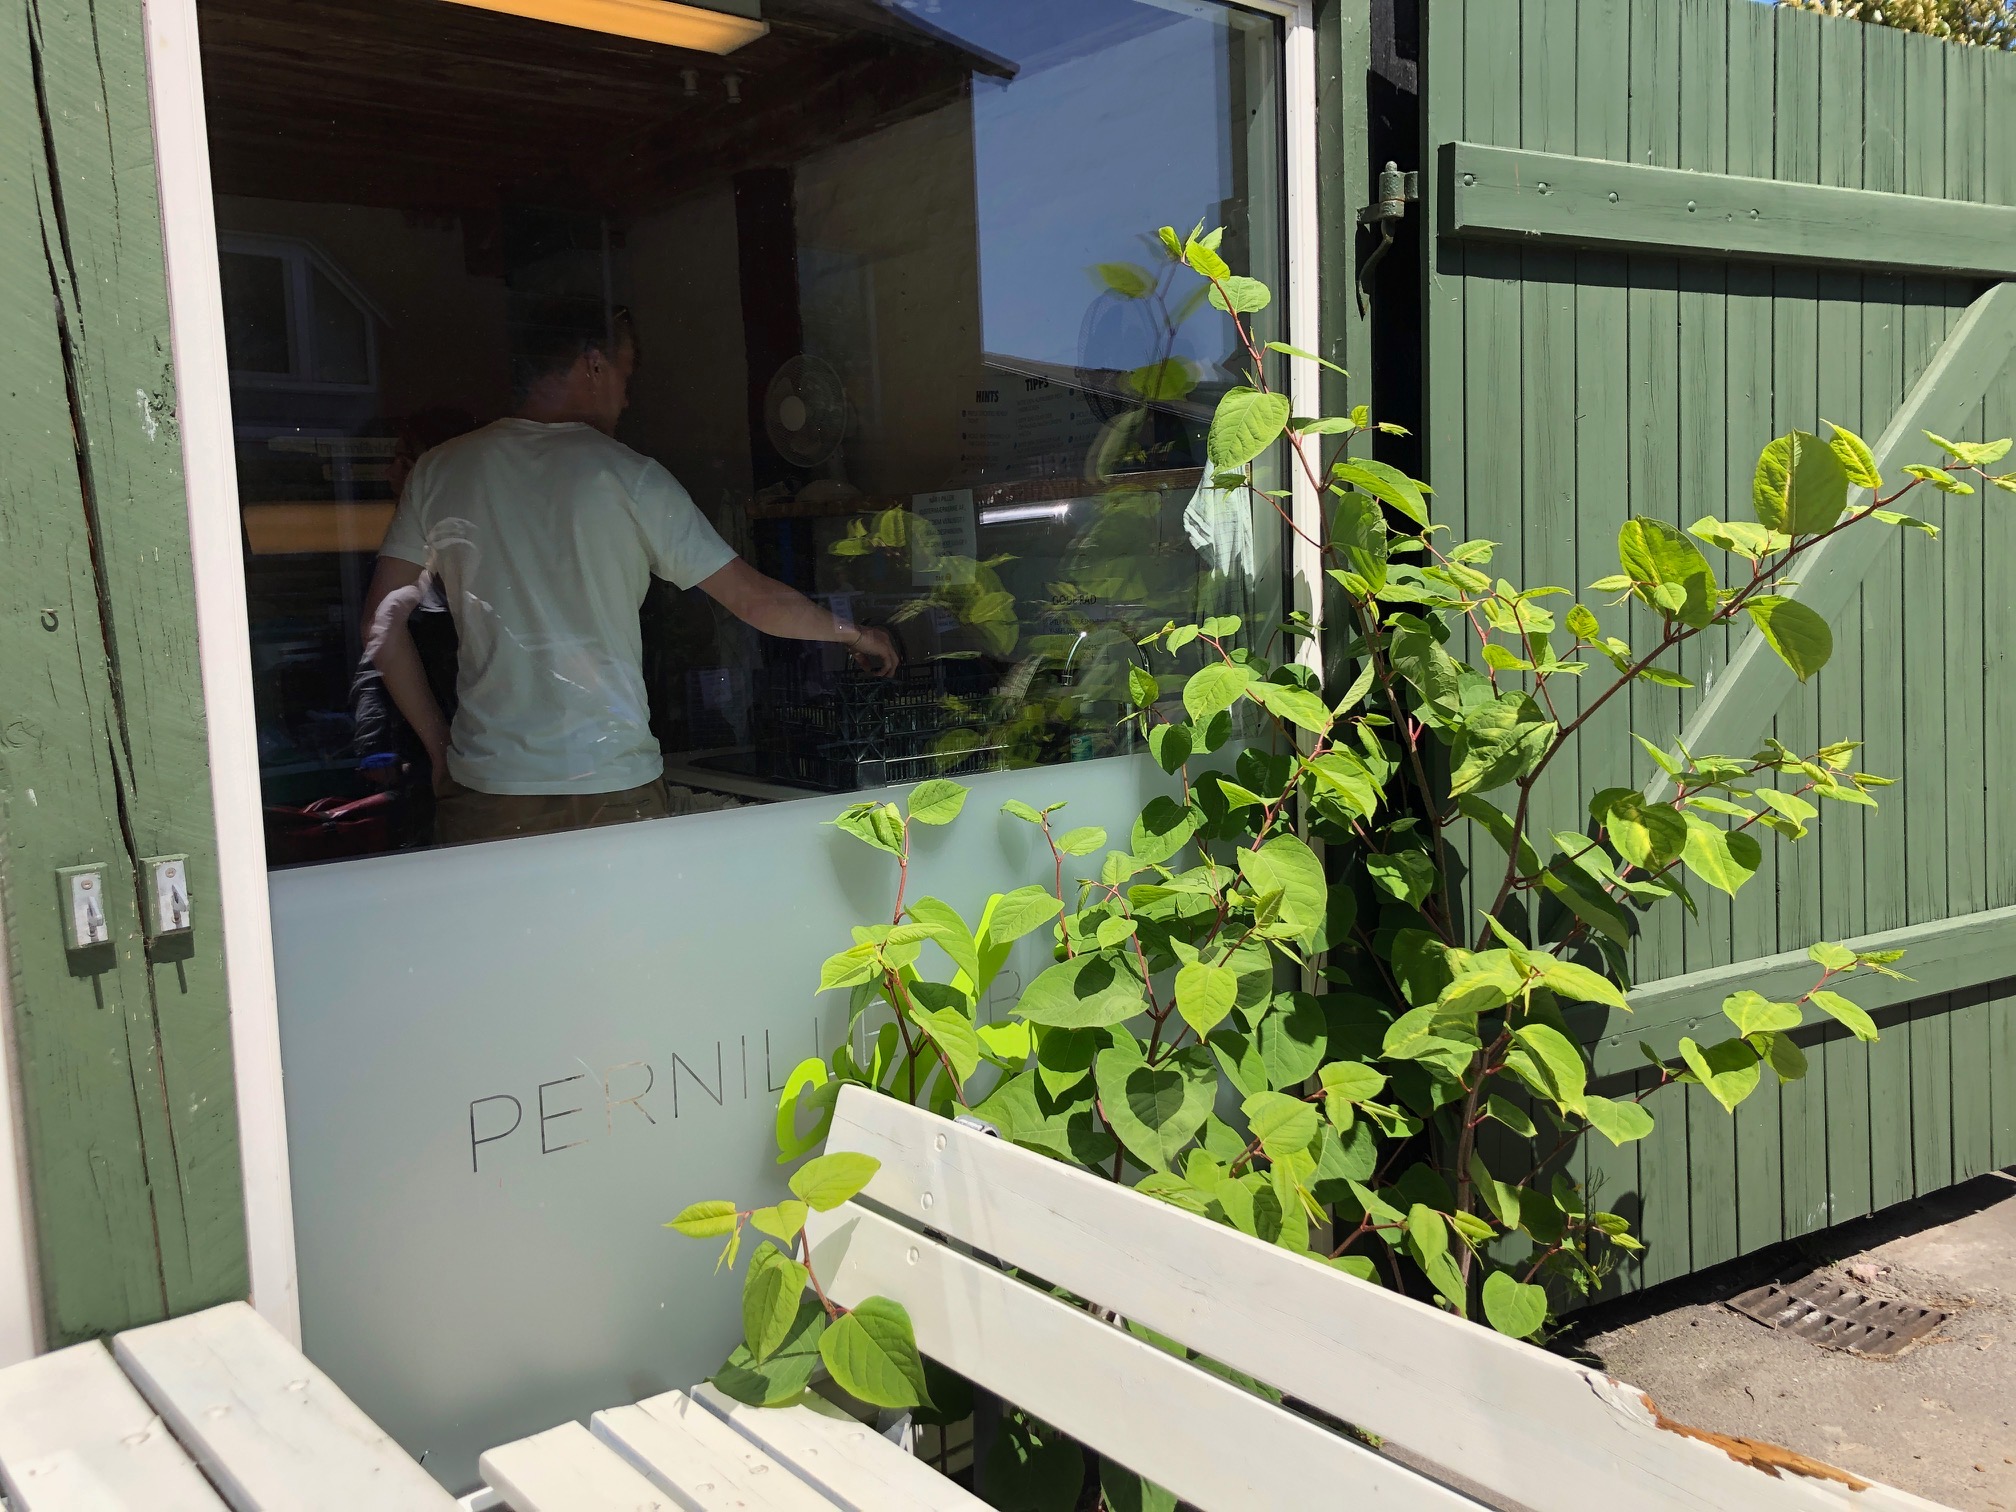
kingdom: Plantae
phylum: Tracheophyta
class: Magnoliopsida
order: Caryophyllales
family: Polygonaceae
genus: Reynoutria
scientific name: Reynoutria japonica
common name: Japan-pileurt
